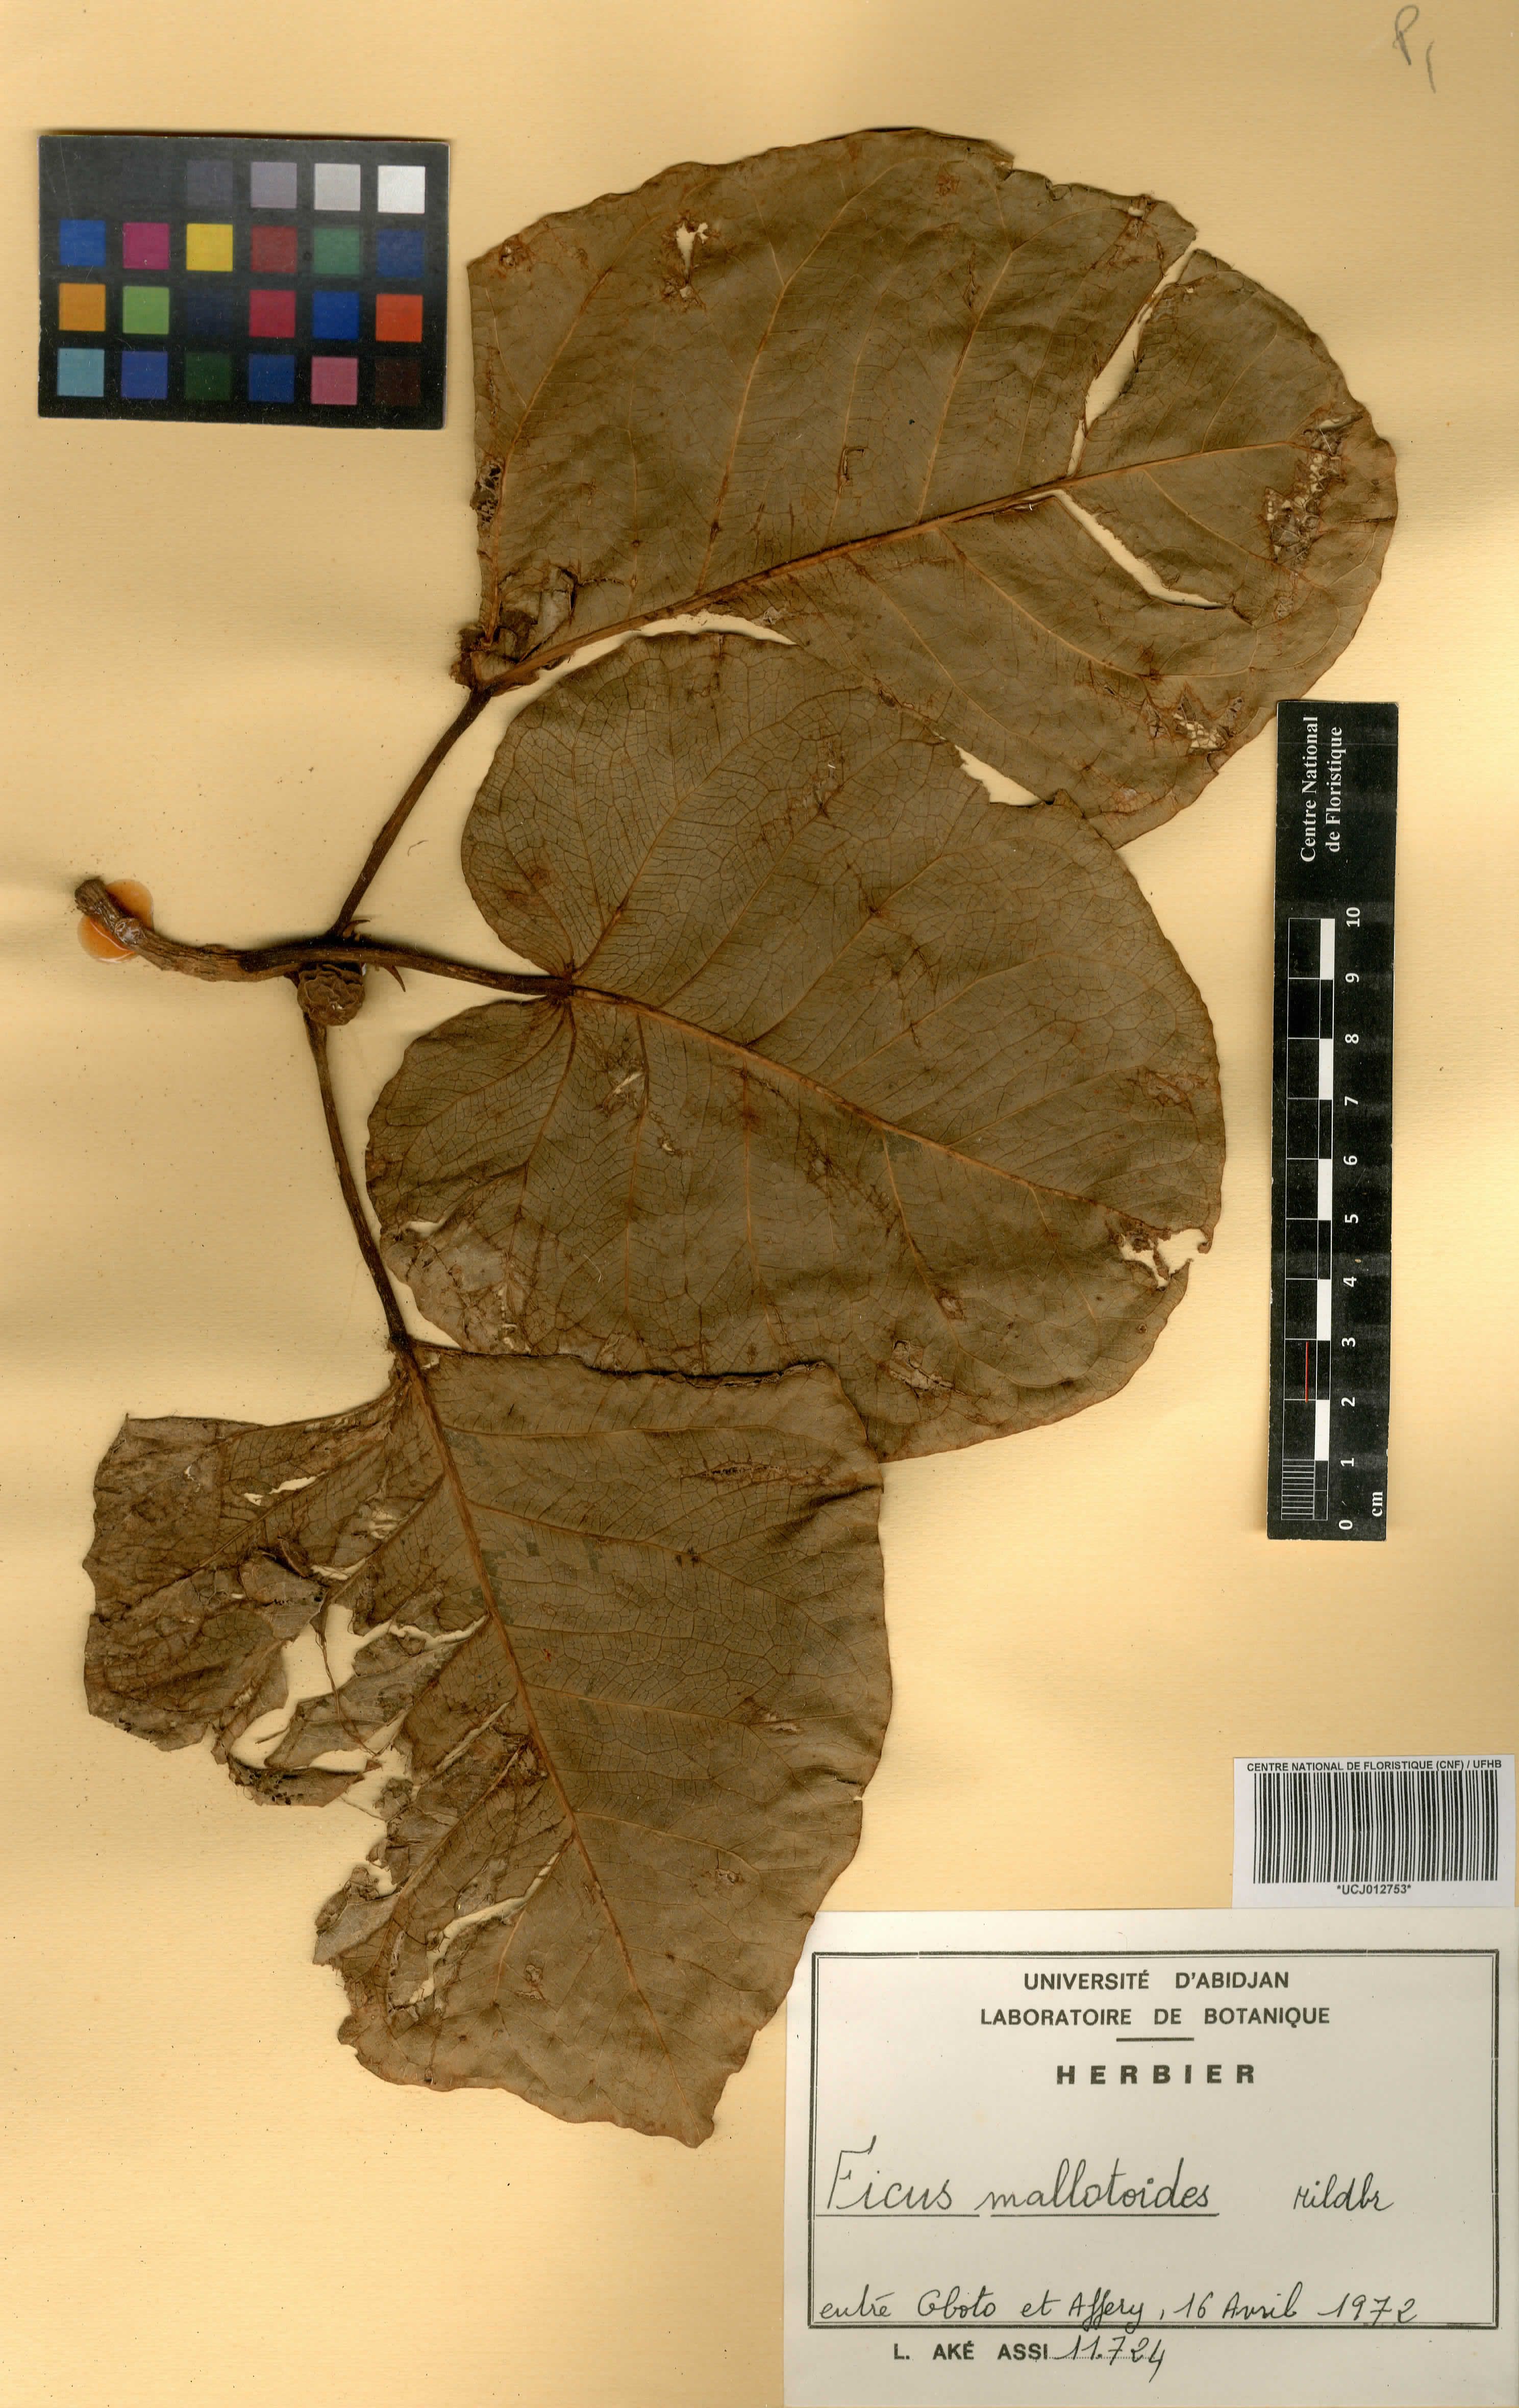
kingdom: Plantae
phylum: Tracheophyta
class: Magnoliopsida
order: Rosales
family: Moraceae
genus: Ficus
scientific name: Ficus calyptrata
